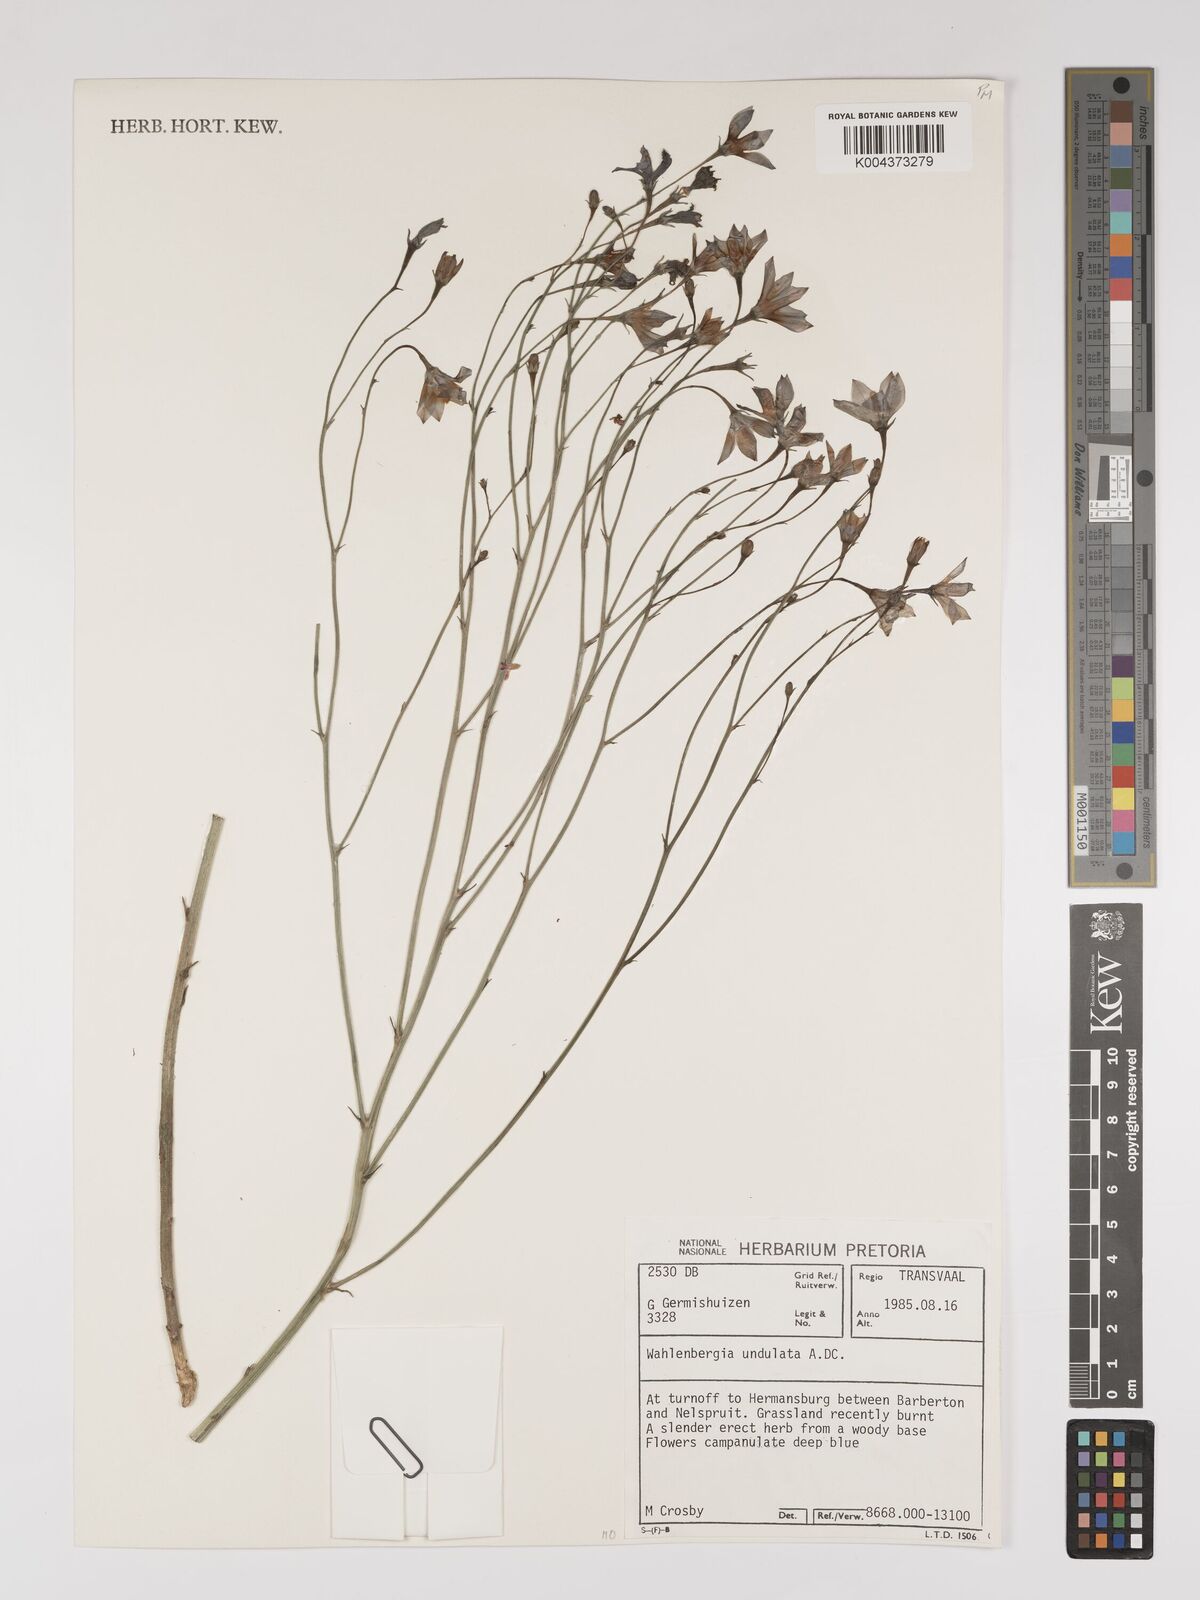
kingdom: Plantae
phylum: Tracheophyta
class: Magnoliopsida
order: Asterales
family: Campanulaceae
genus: Wahlenbergia
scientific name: Wahlenbergia undulata
